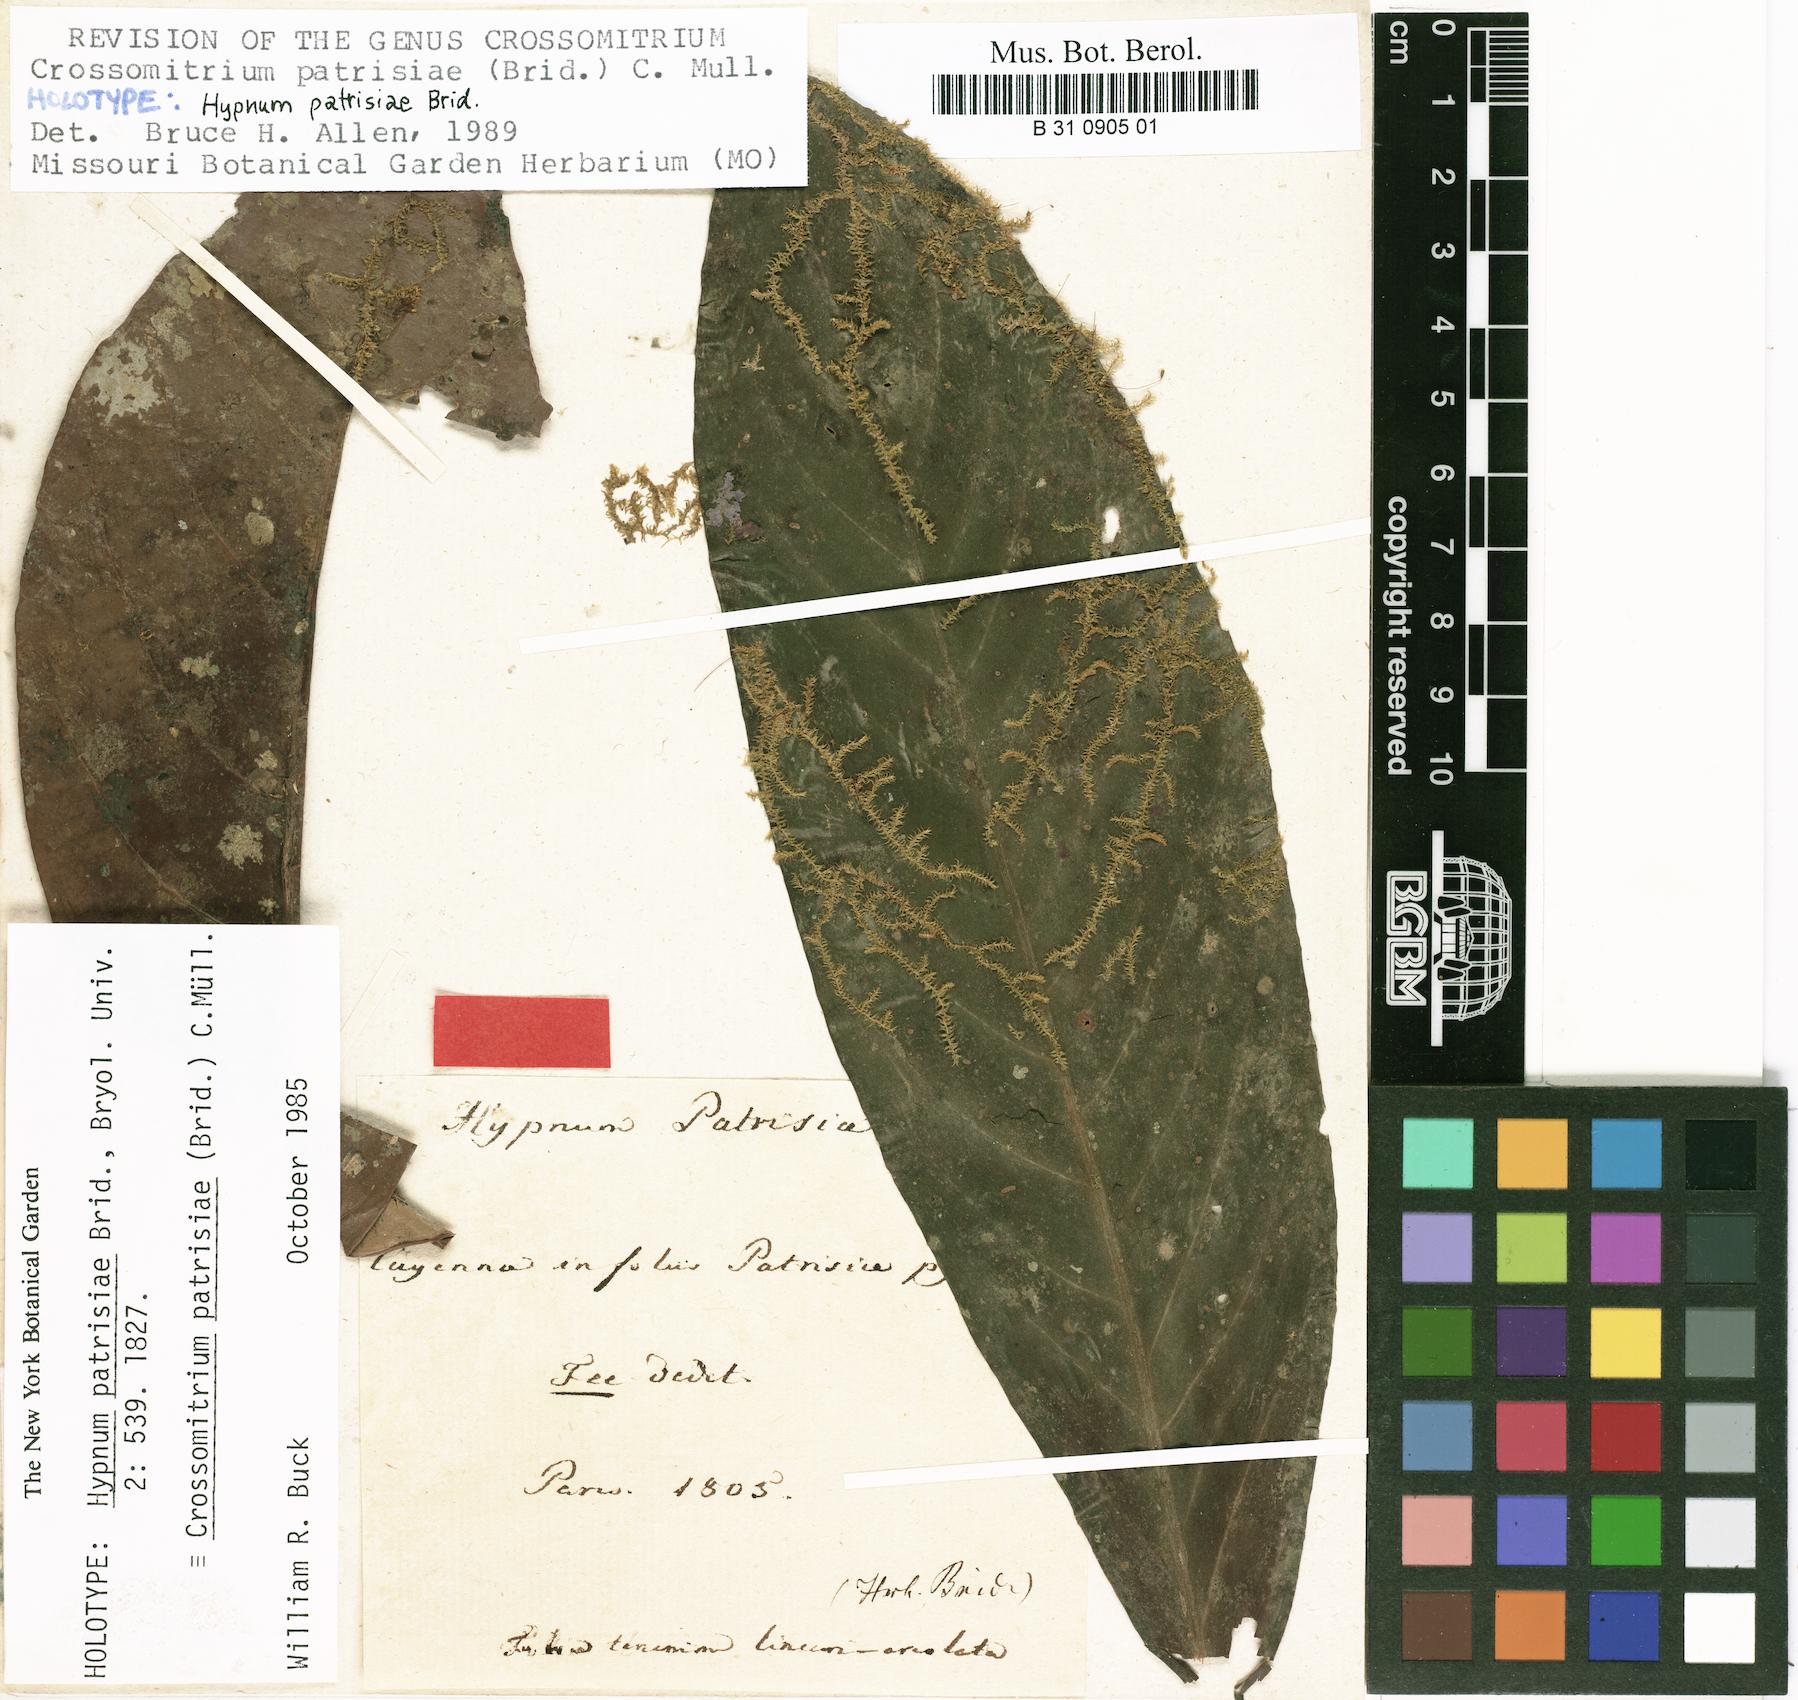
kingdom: Plantae
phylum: Bryophyta
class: Bryopsida
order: Hookeriales
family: Hookeriaceae
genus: Crossomitrium
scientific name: Crossomitrium patrisiae
